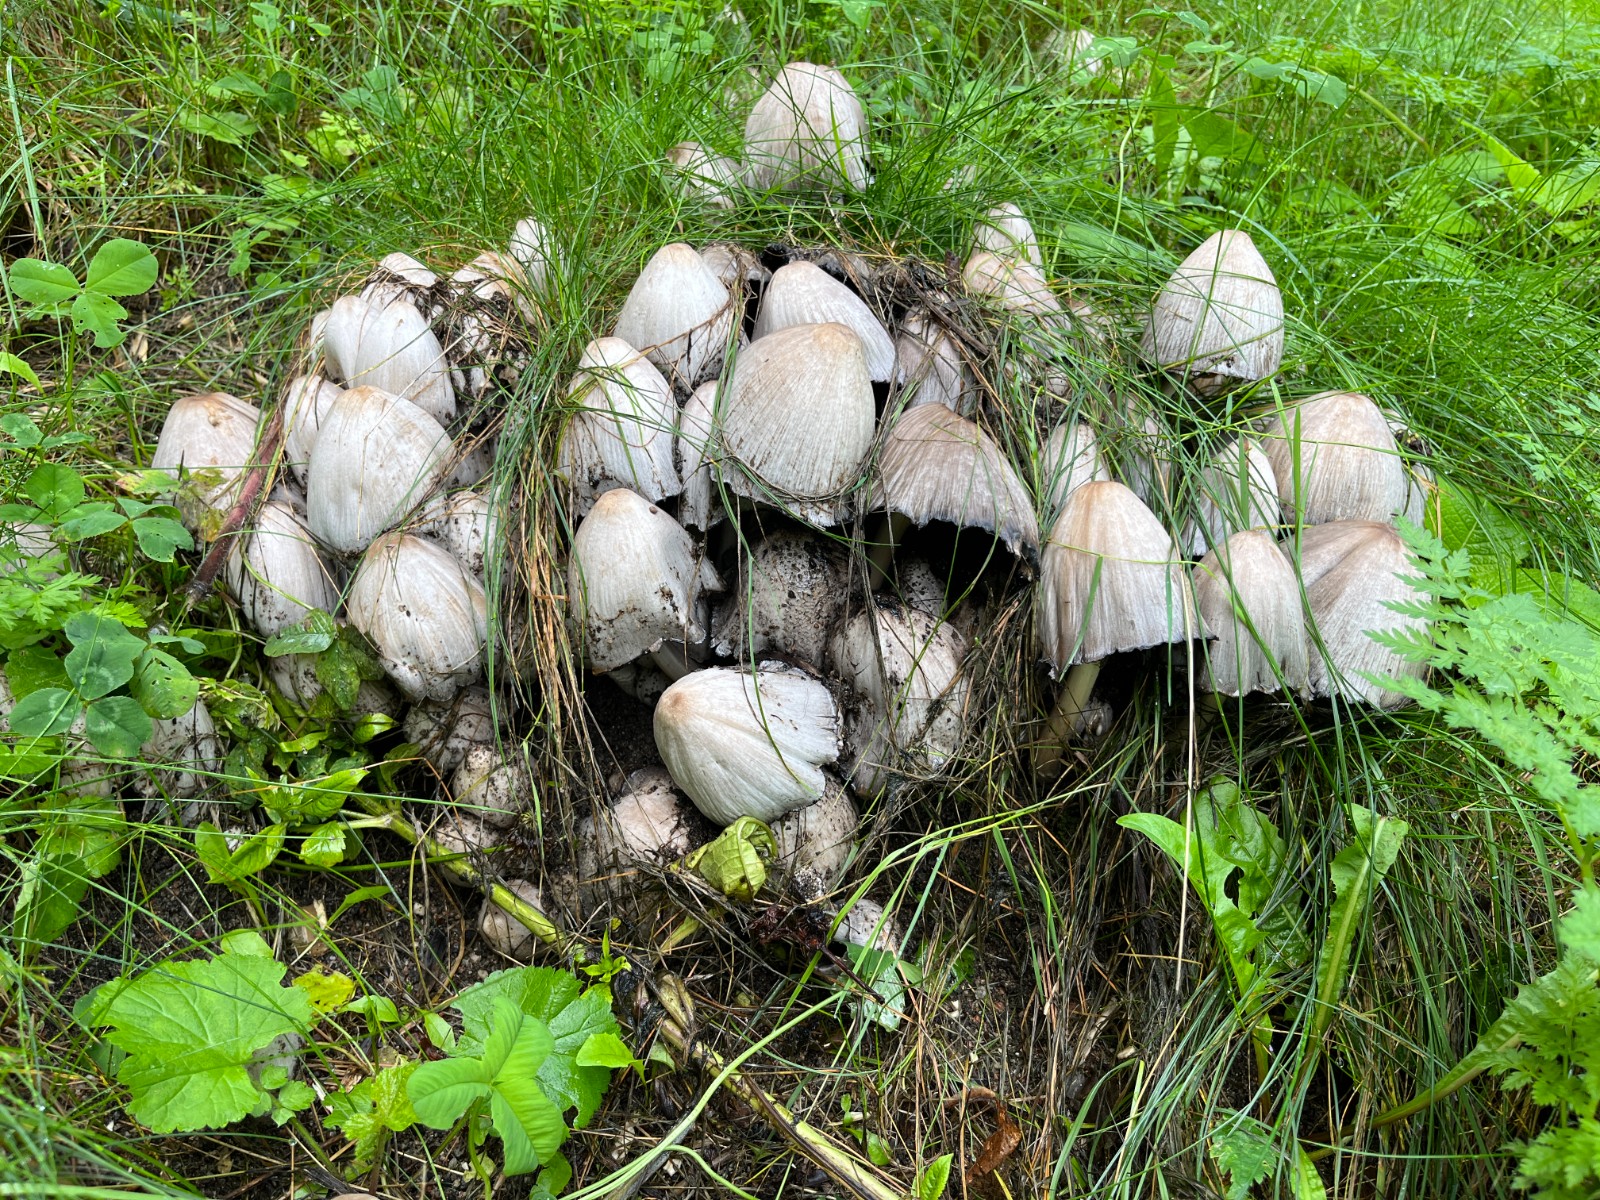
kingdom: Fungi
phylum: Basidiomycota
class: Agaricomycetes
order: Agaricales
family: Psathyrellaceae
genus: Coprinopsis
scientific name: Coprinopsis atramentaria
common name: almindelig blækhat
